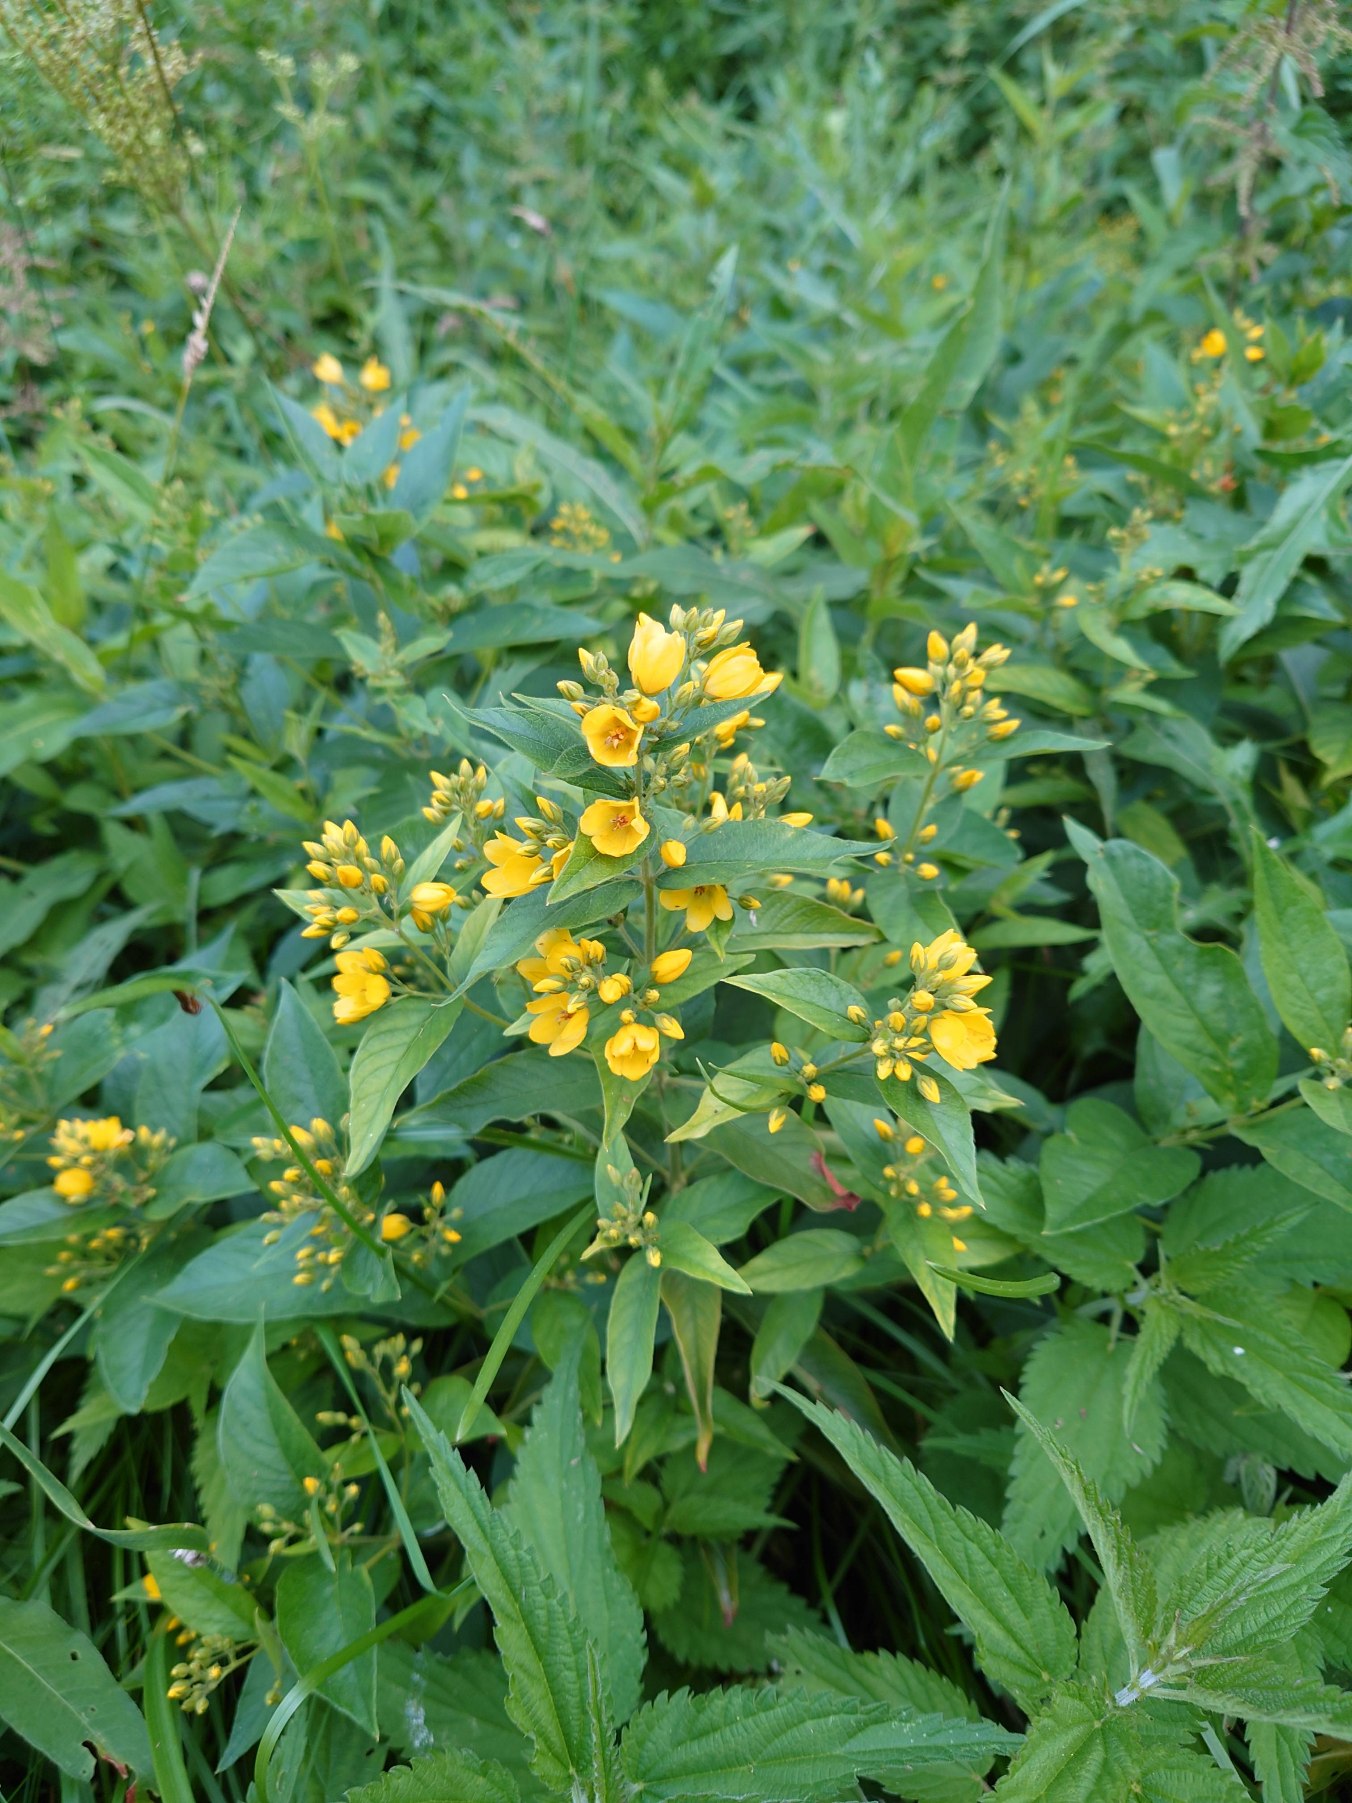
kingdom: Plantae
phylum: Tracheophyta
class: Magnoliopsida
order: Ericales
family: Primulaceae
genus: Lysimachia
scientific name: Lysimachia vulgaris
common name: Almindelig fredløs
